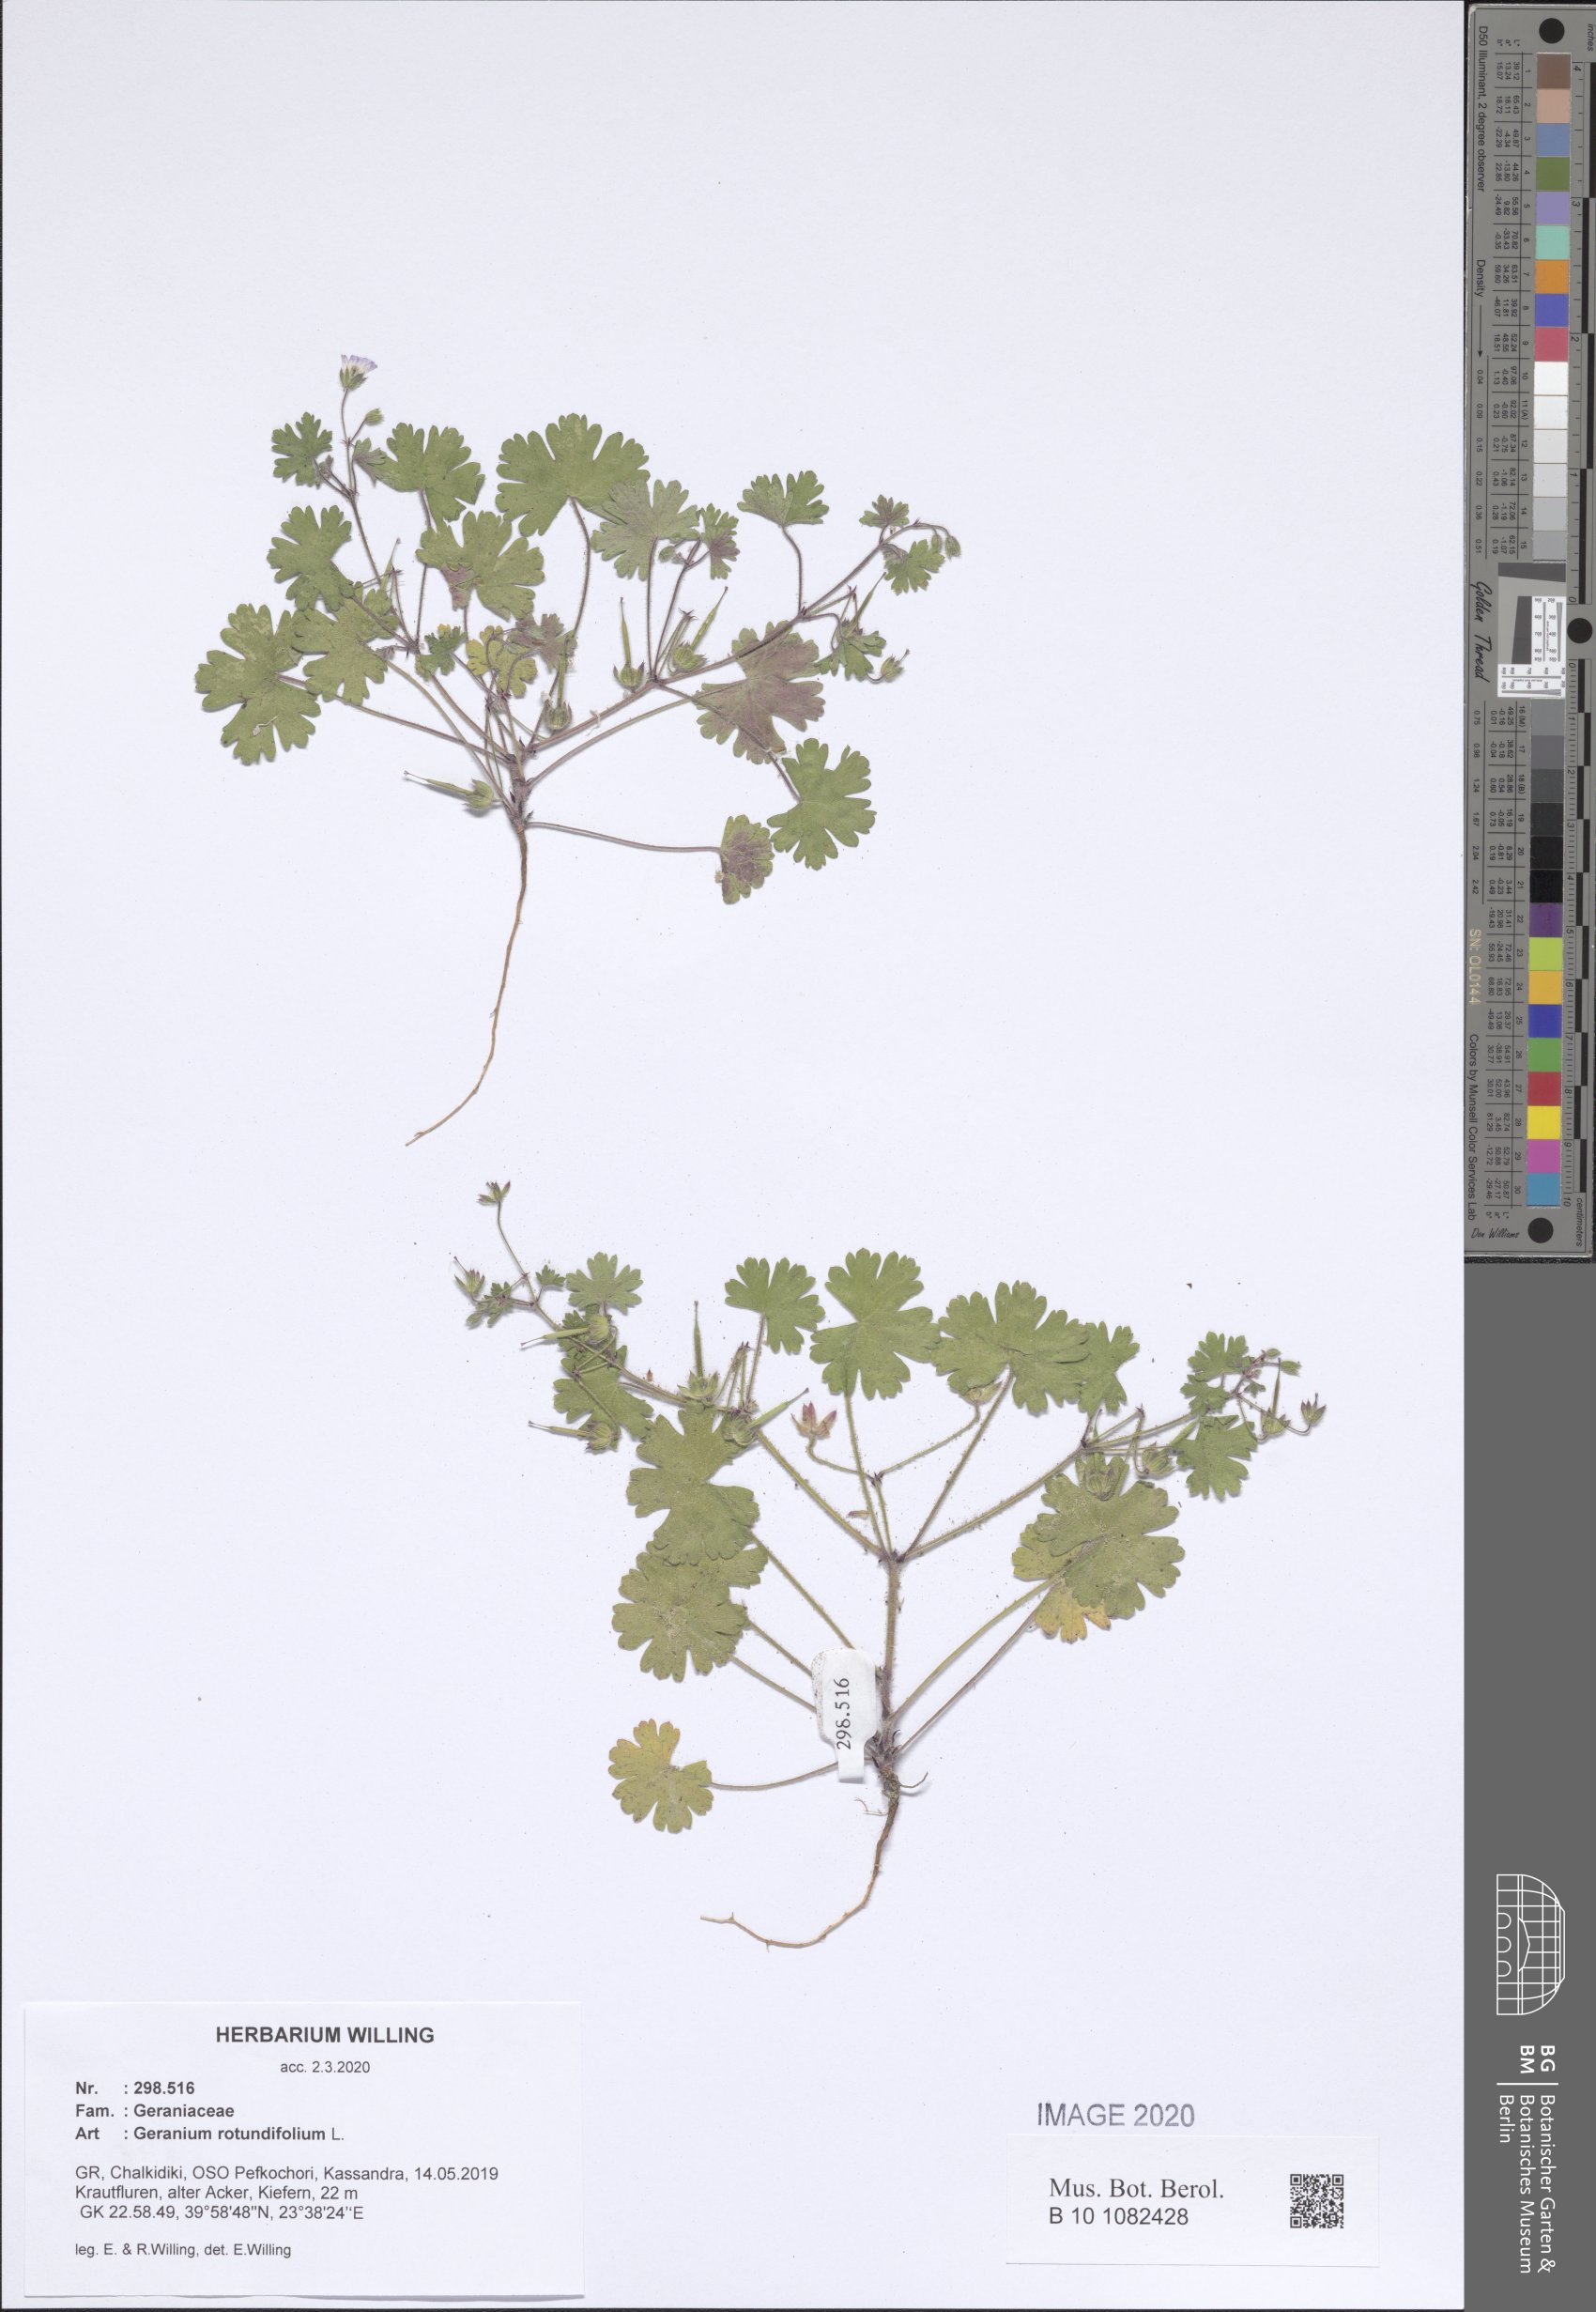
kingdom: Plantae
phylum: Tracheophyta
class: Magnoliopsida
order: Geraniales
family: Geraniaceae
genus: Geranium
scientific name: Geranium rotundifolium
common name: Round-leaved crane's-bill
